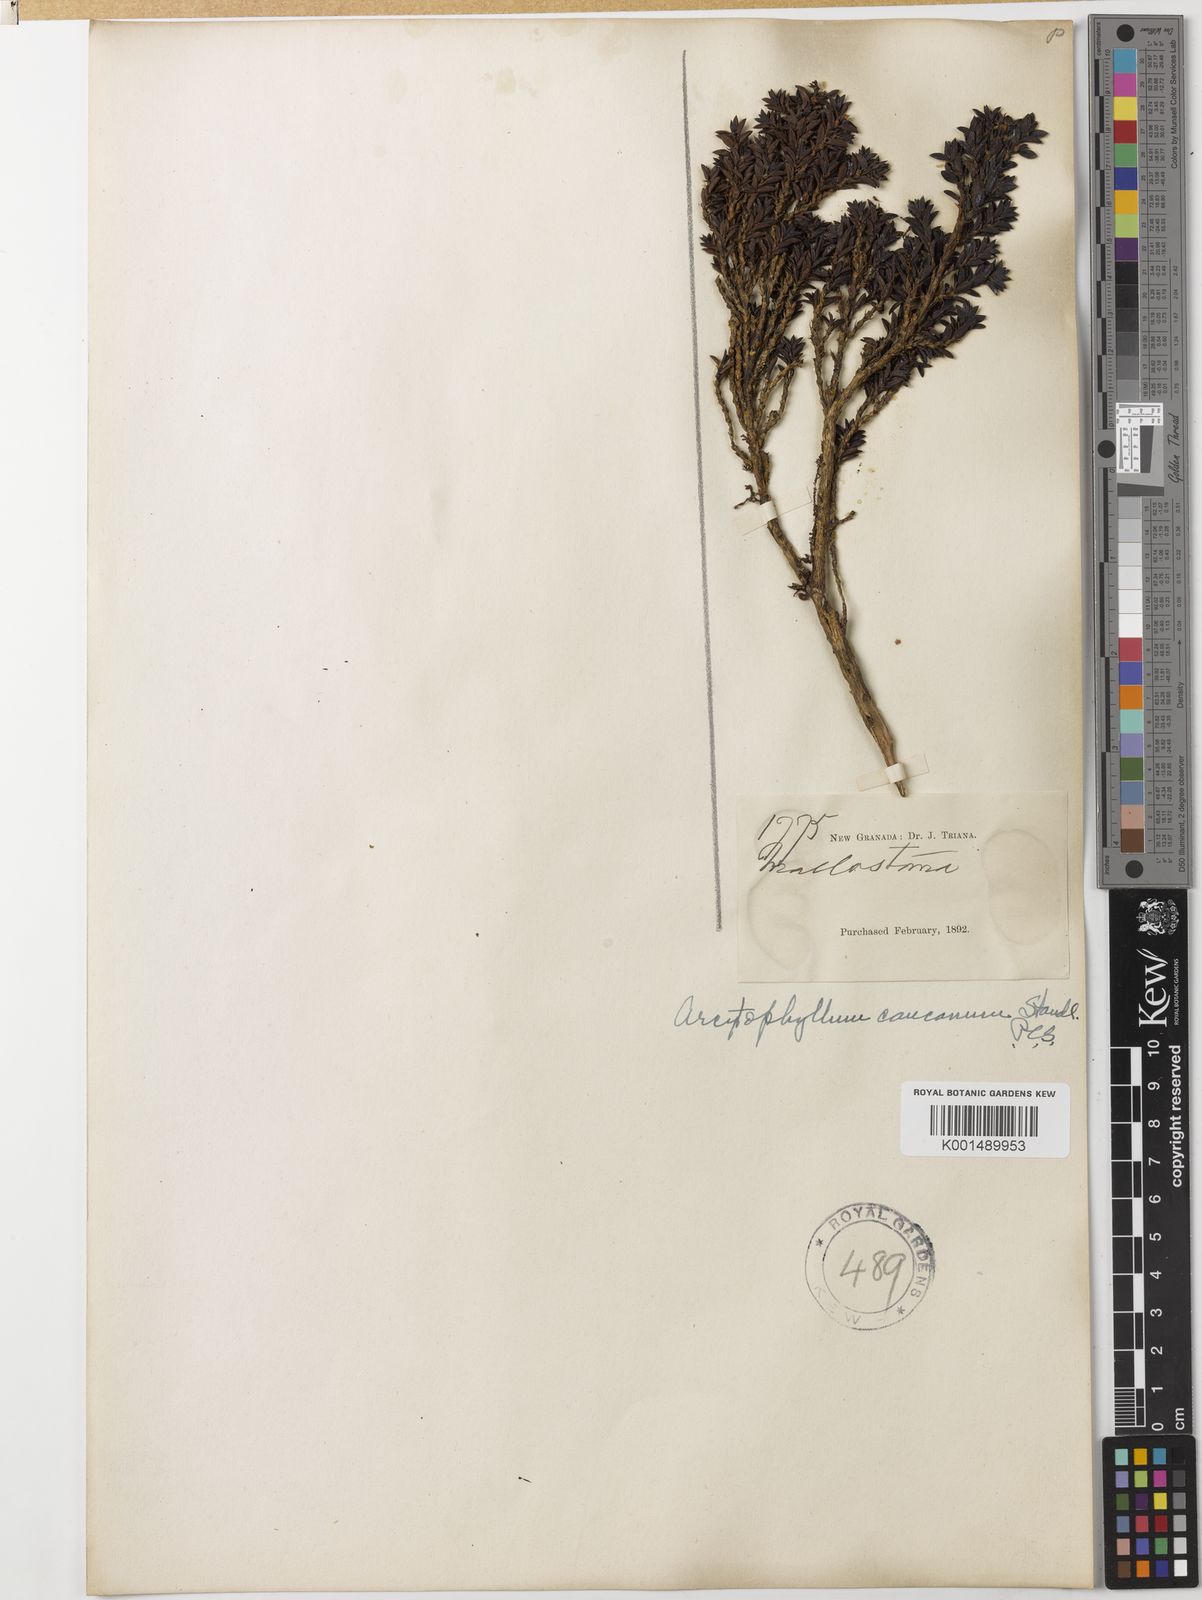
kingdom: Plantae
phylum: Tracheophyta
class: Magnoliopsida
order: Gentianales
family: Rubiaceae
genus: Arcytophyllum
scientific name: Arcytophyllum setosum
